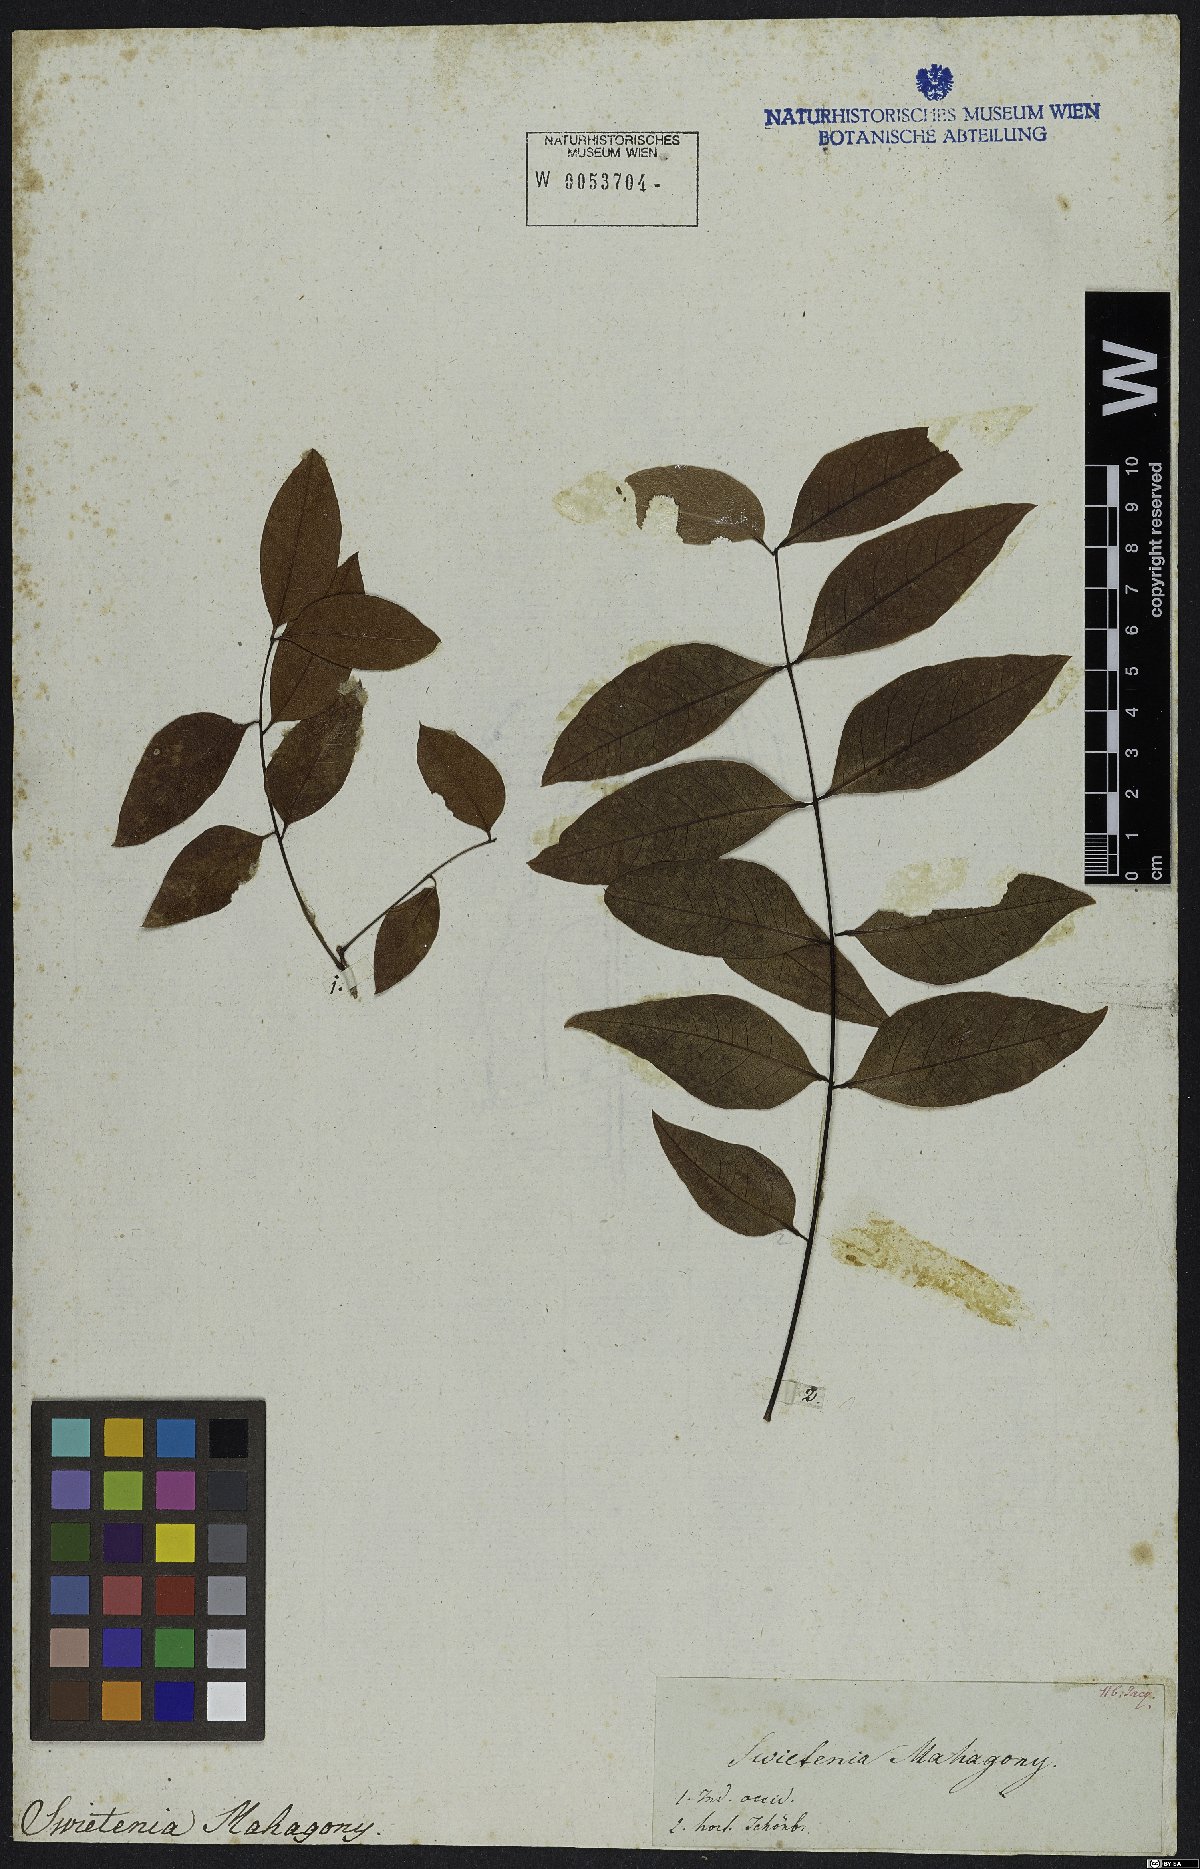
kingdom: Plantae
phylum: Tracheophyta
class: Magnoliopsida
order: Sapindales
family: Meliaceae
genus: Swietenia
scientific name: Swietenia mahagoni
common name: West indian mahogany
